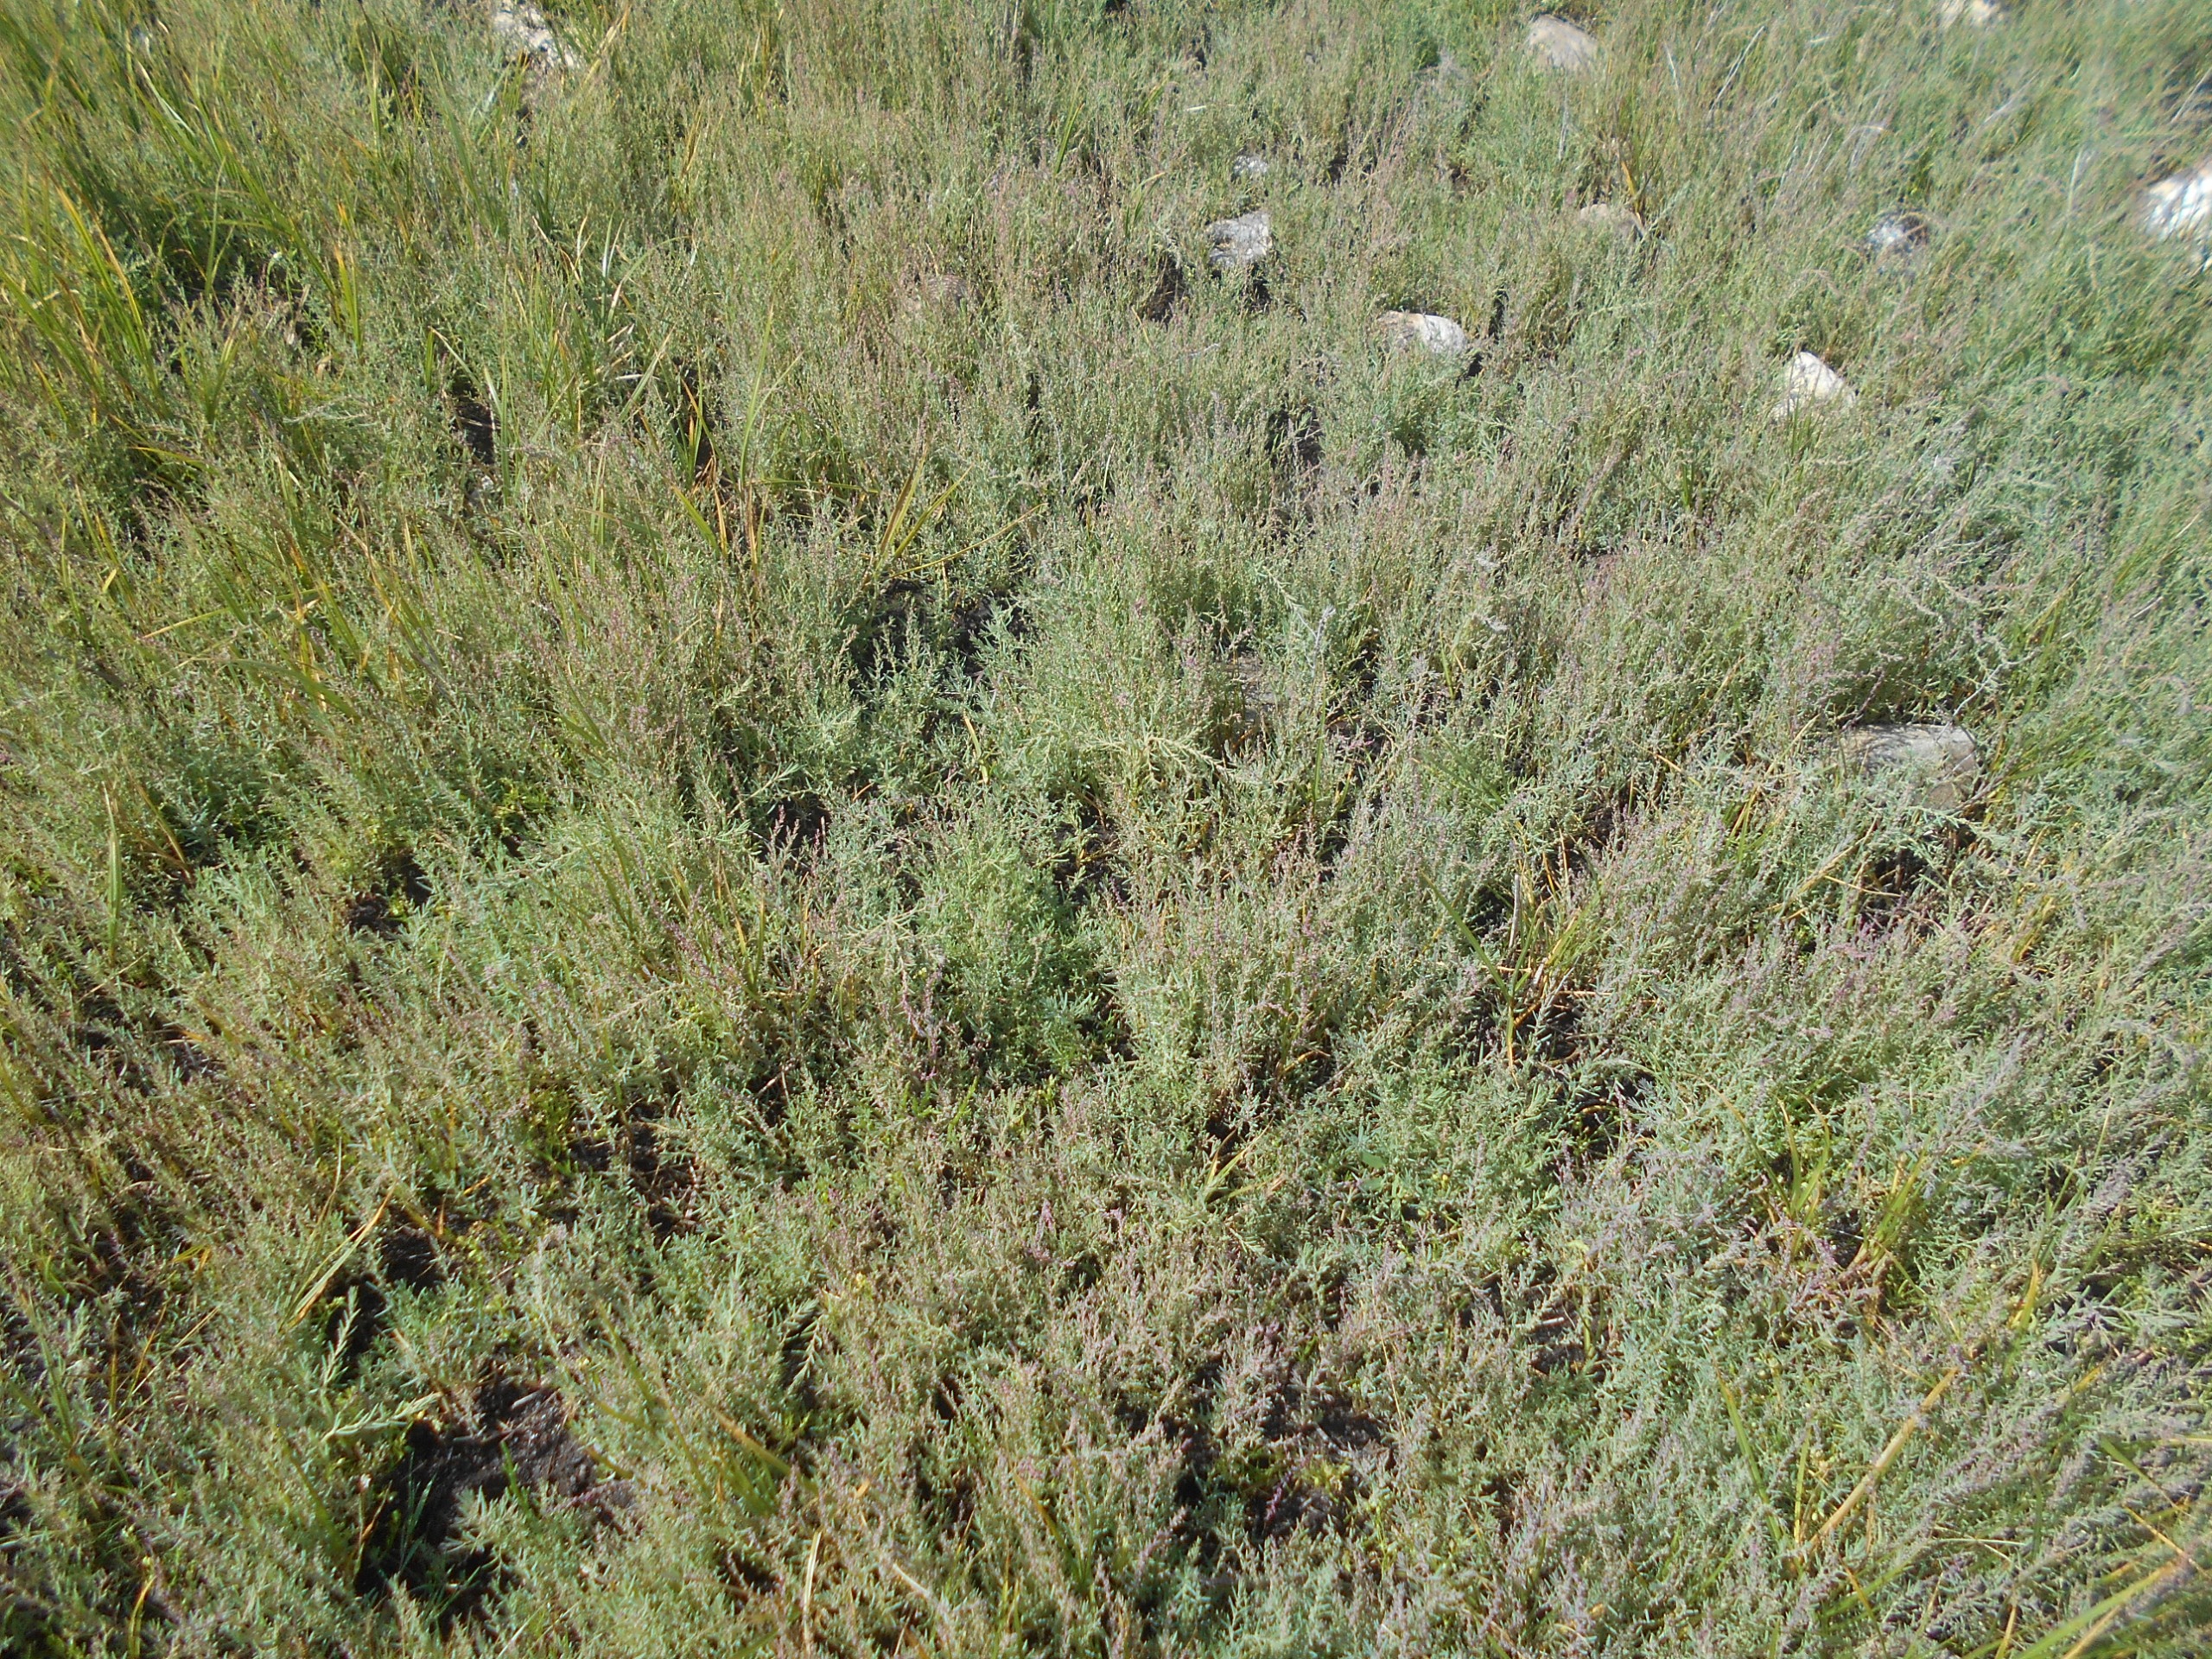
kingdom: Plantae
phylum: Tracheophyta
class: Magnoliopsida
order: Caryophyllales
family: Amaranthaceae
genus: Suaeda
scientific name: Suaeda maritima
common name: Strandgåsefod
